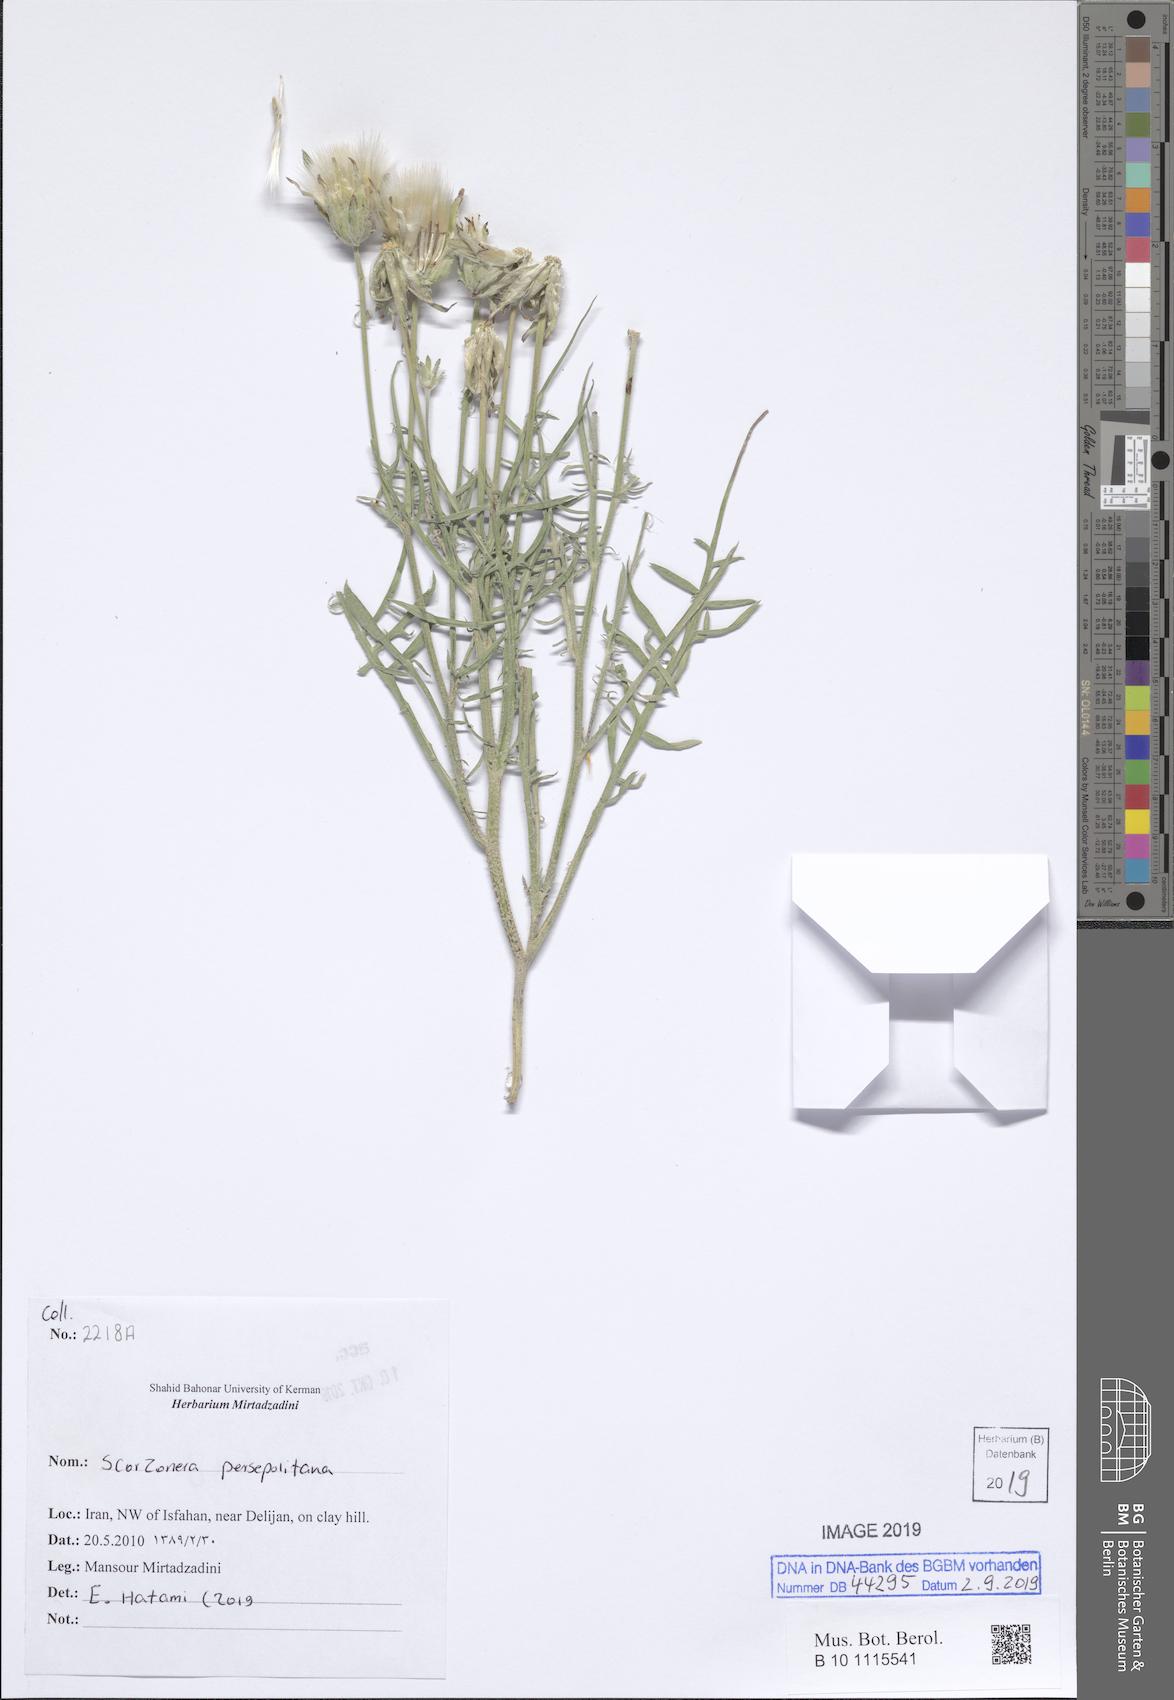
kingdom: Plantae
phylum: Tracheophyta
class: Magnoliopsida
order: Asterales
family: Asteraceae
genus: Scorzonera
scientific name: Scorzonera persepolitana
